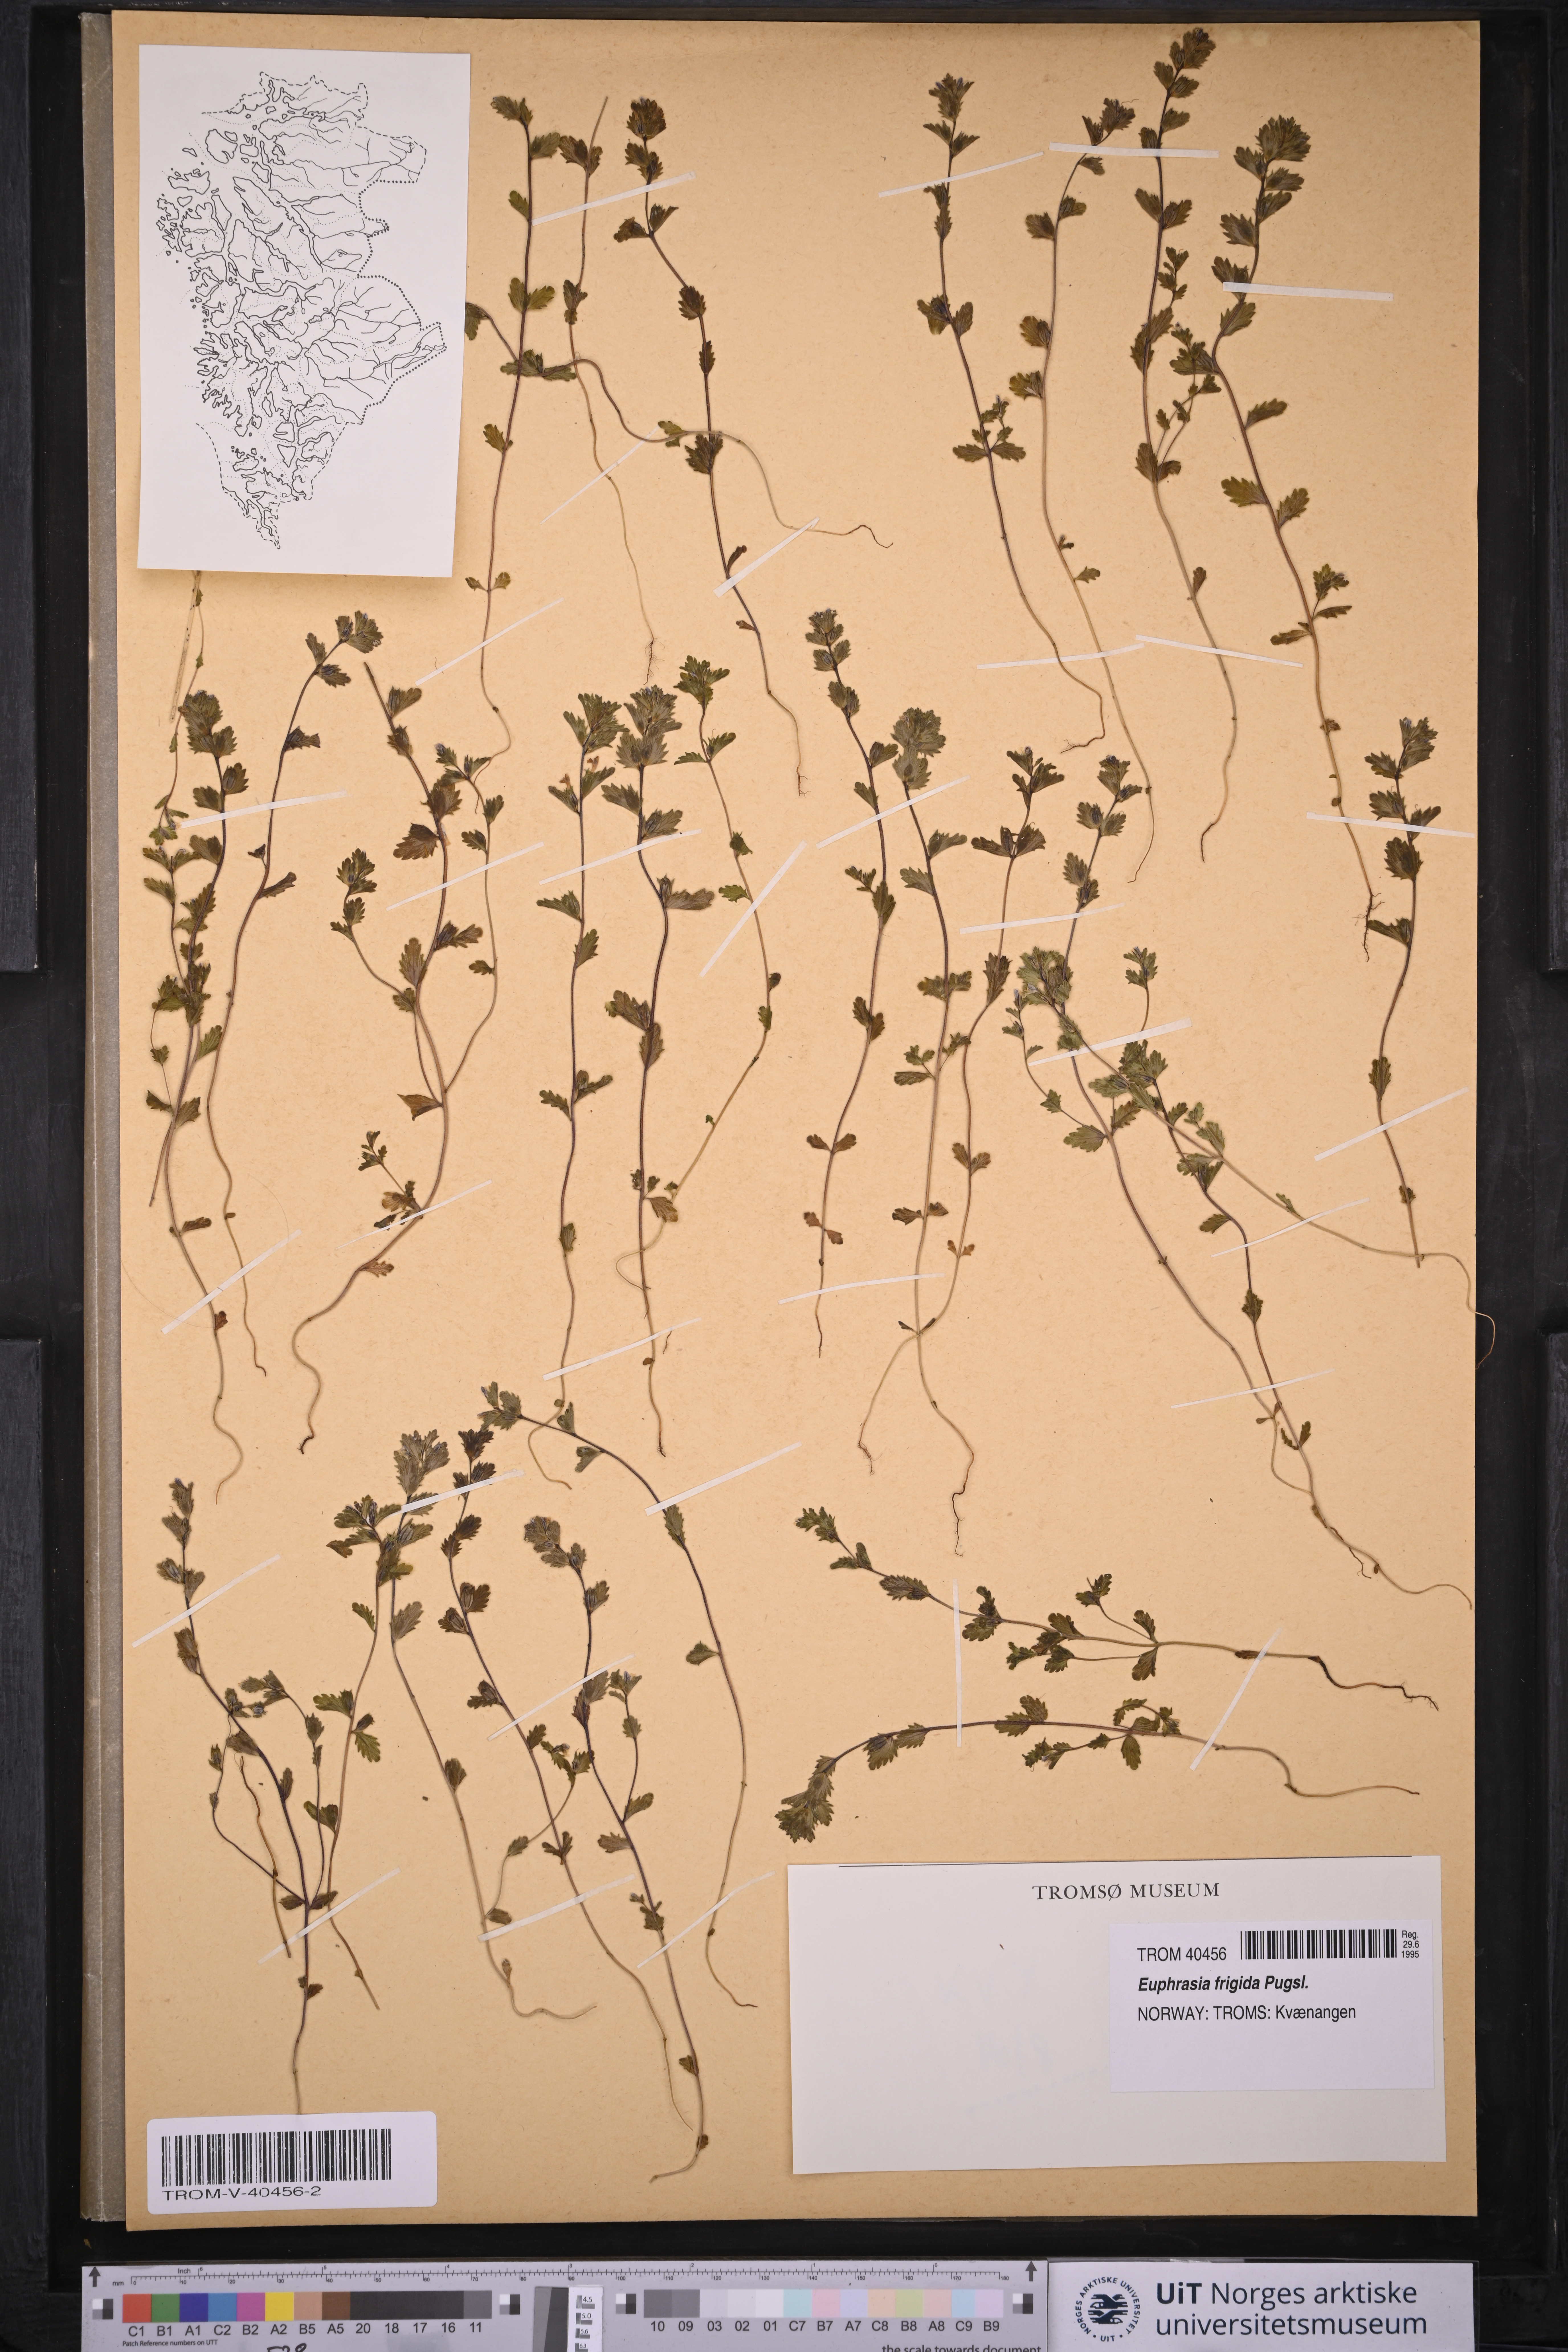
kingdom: Plantae
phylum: Tracheophyta
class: Magnoliopsida
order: Lamiales
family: Orobanchaceae
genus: Euphrasia
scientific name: Euphrasia frigida
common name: An eyebright
